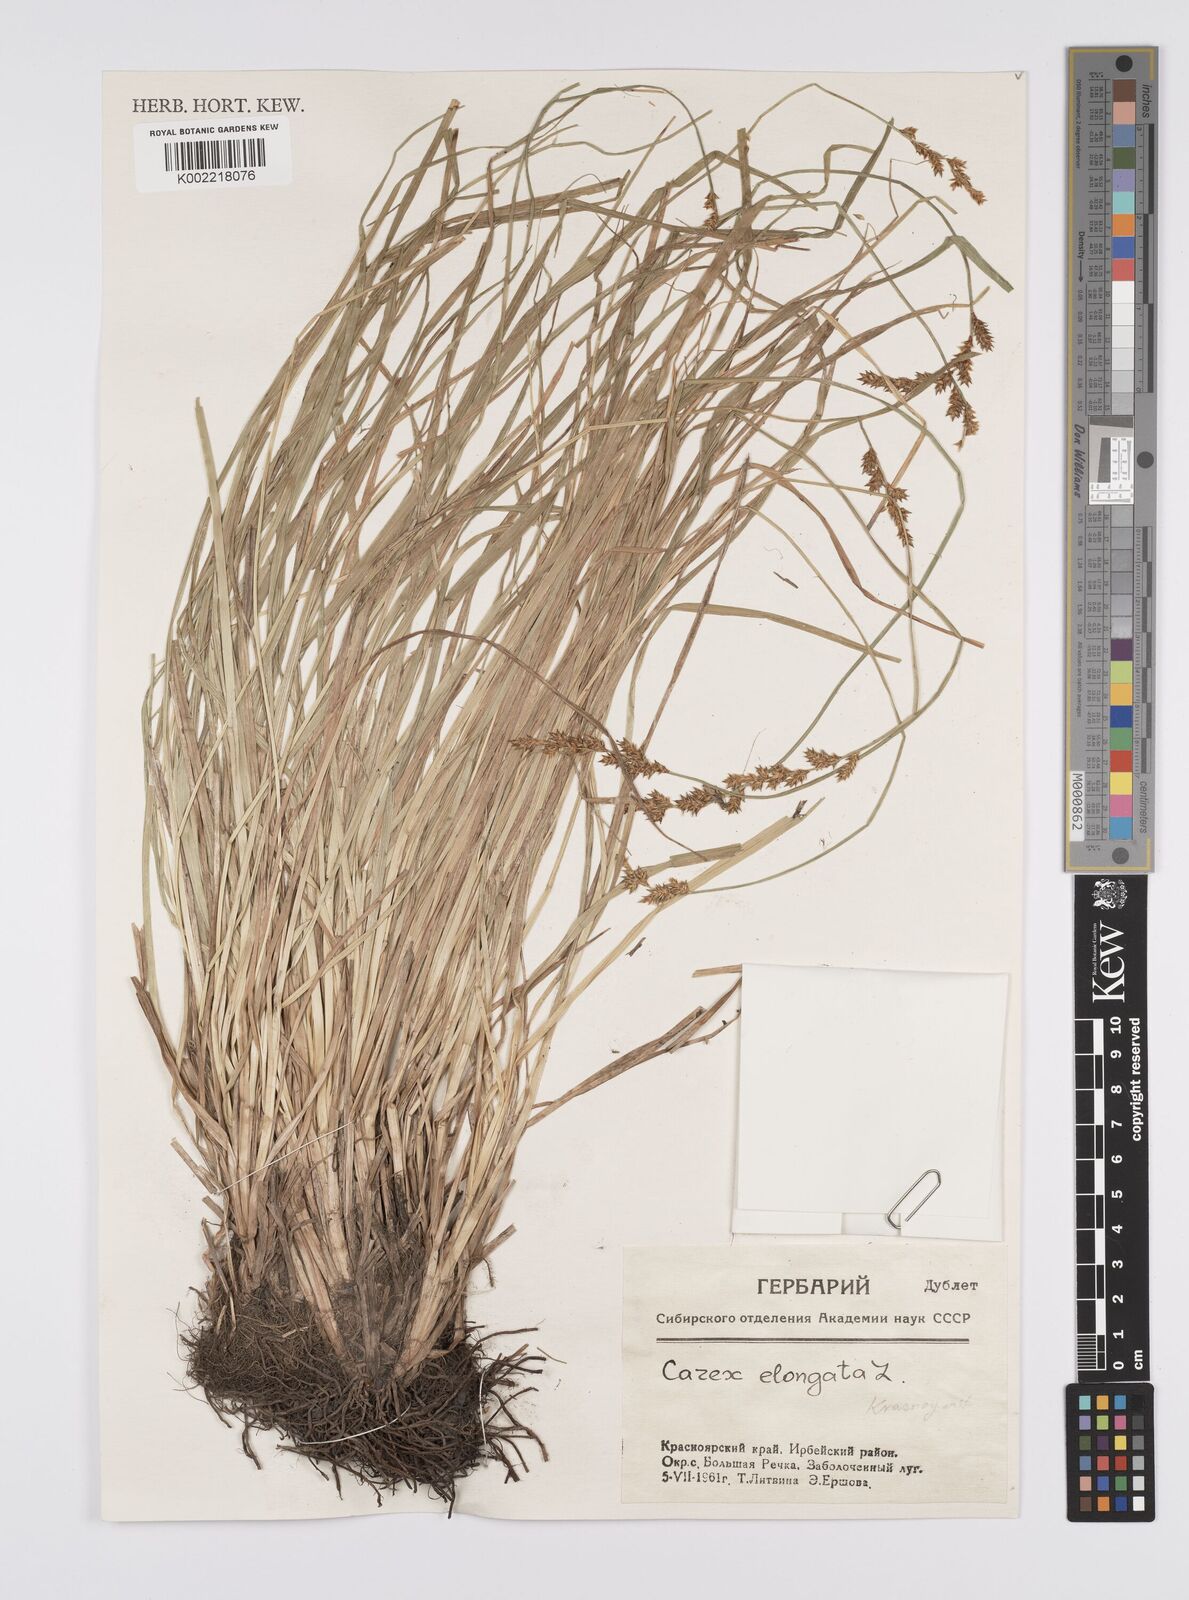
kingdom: Plantae
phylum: Tracheophyta
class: Liliopsida
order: Poales
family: Cyperaceae
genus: Carex
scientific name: Carex elongata
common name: Elongated sedge
